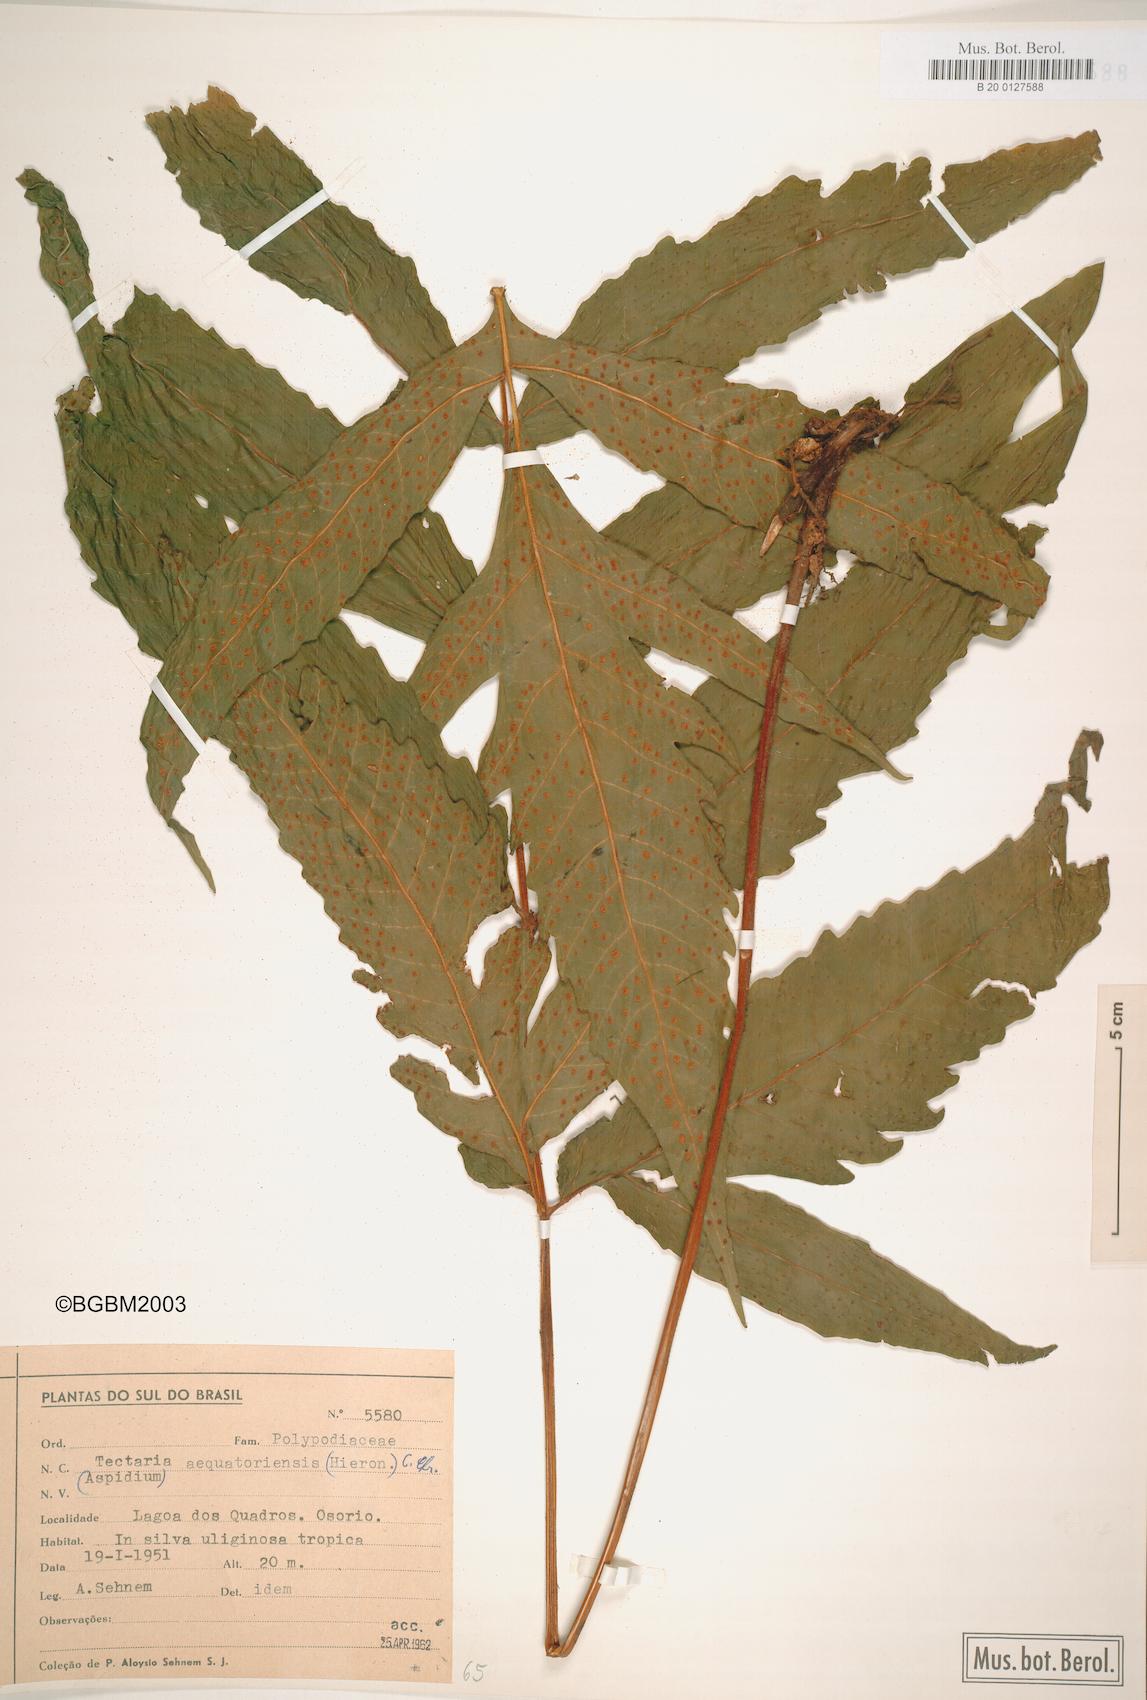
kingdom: Plantae
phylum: Tracheophyta
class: Polypodiopsida
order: Polypodiales
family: Tectariaceae
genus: Tectaria
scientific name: Tectaria pilosa
